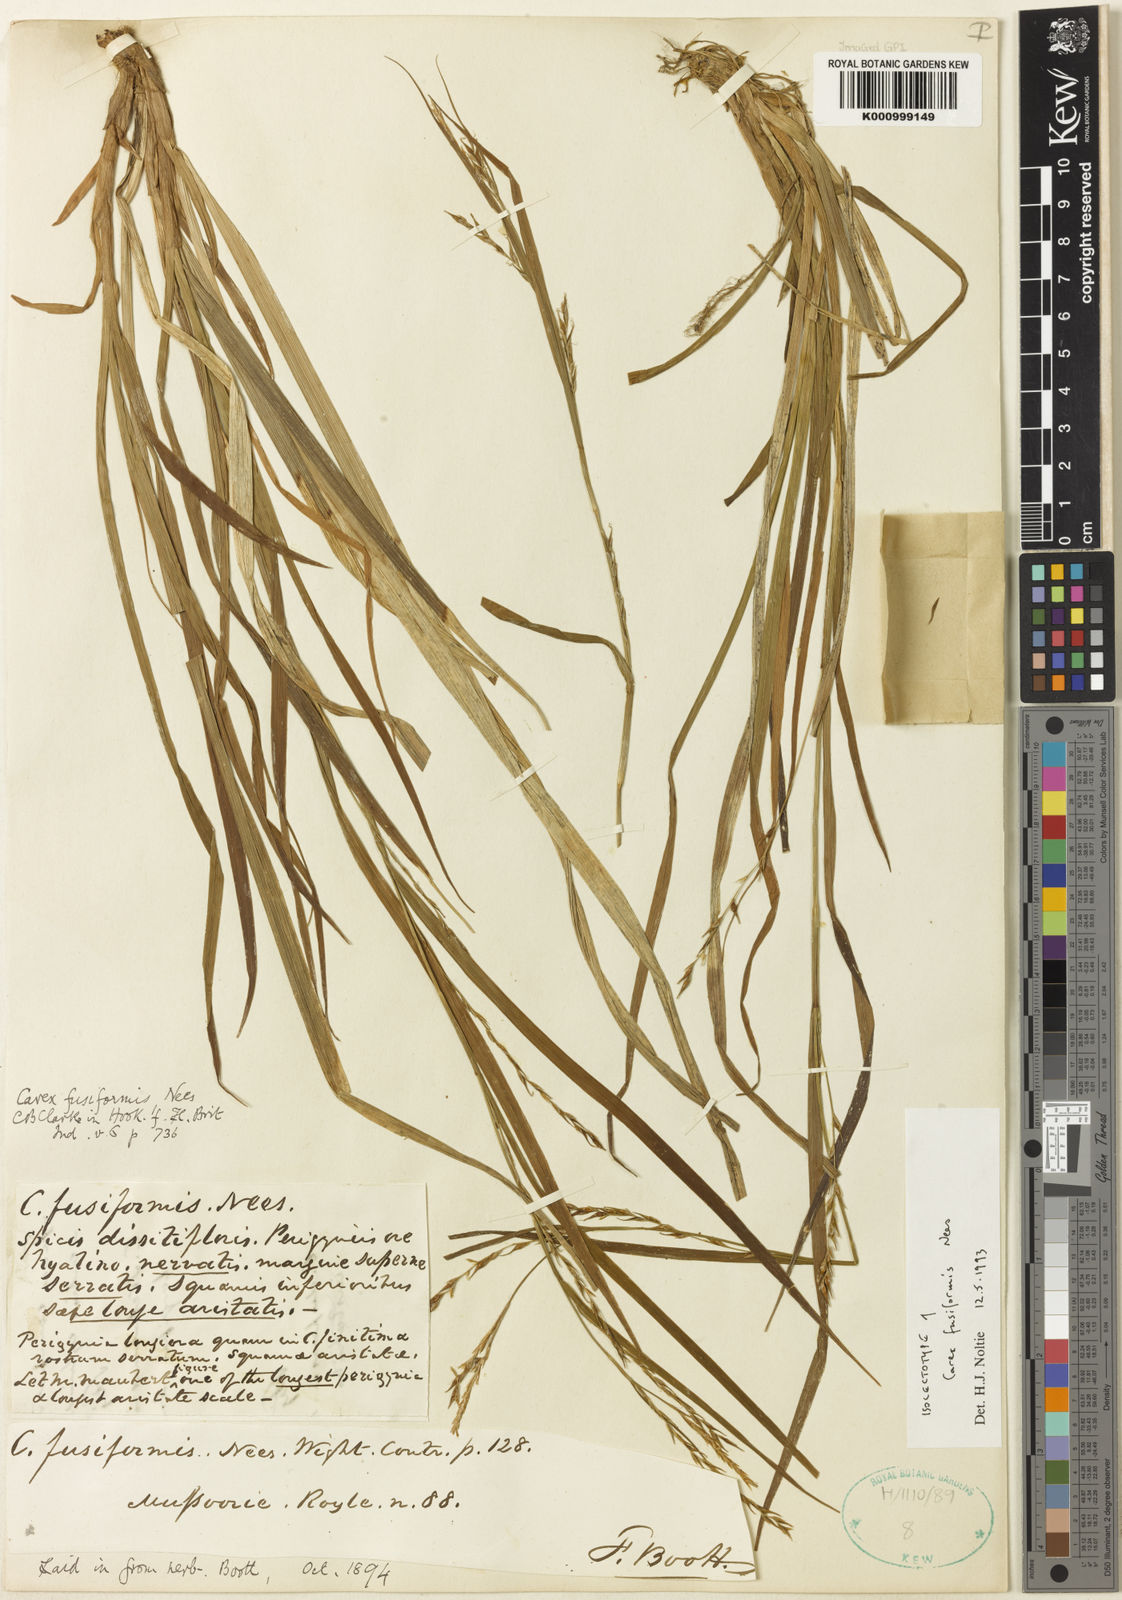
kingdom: Plantae
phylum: Tracheophyta
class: Liliopsida
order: Poales
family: Cyperaceae
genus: Carex
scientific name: Carex fusiformis
